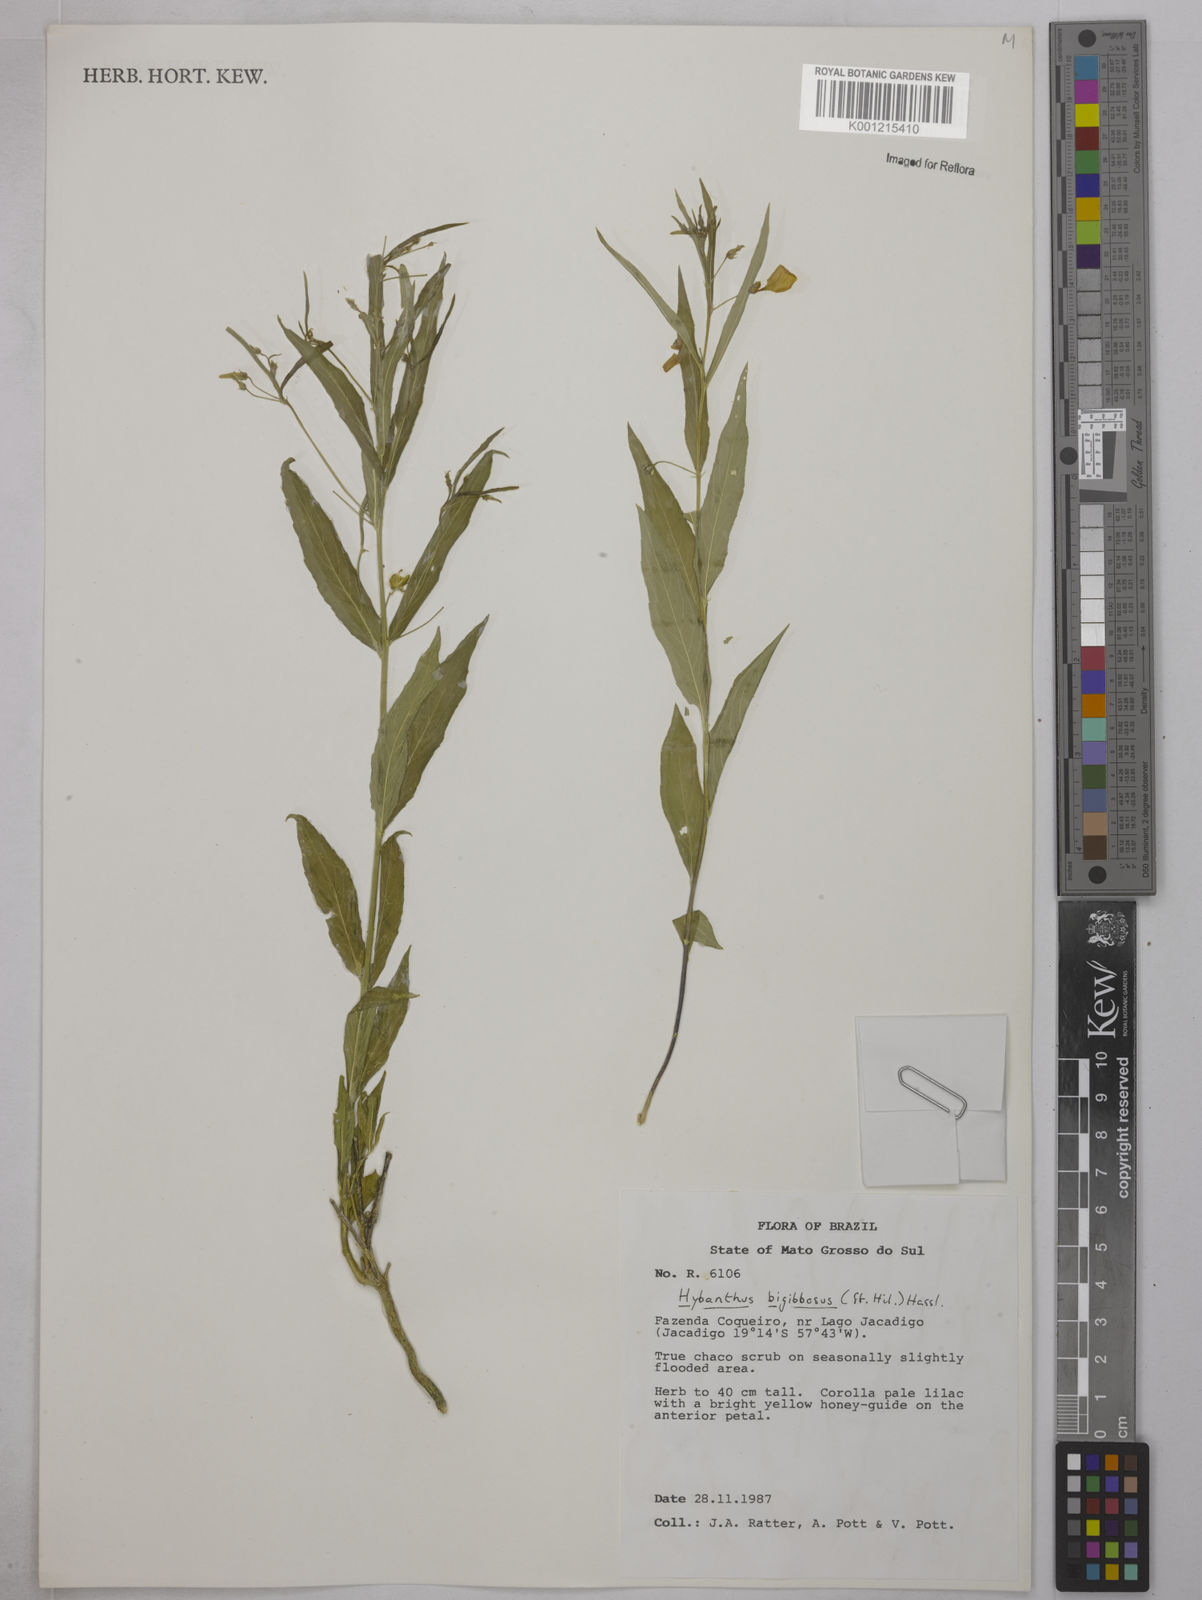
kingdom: Plantae
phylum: Tracheophyta
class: Magnoliopsida
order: Malpighiales
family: Violaceae
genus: Pombalia
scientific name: Pombalia bigibbosa
